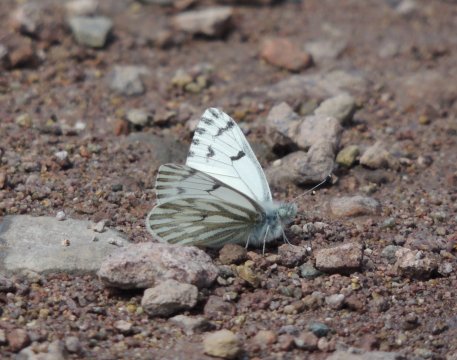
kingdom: Animalia
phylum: Arthropoda
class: Insecta
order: Lepidoptera
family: Pieridae
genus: Pontia
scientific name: Pontia sisymbrii
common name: Spring White
